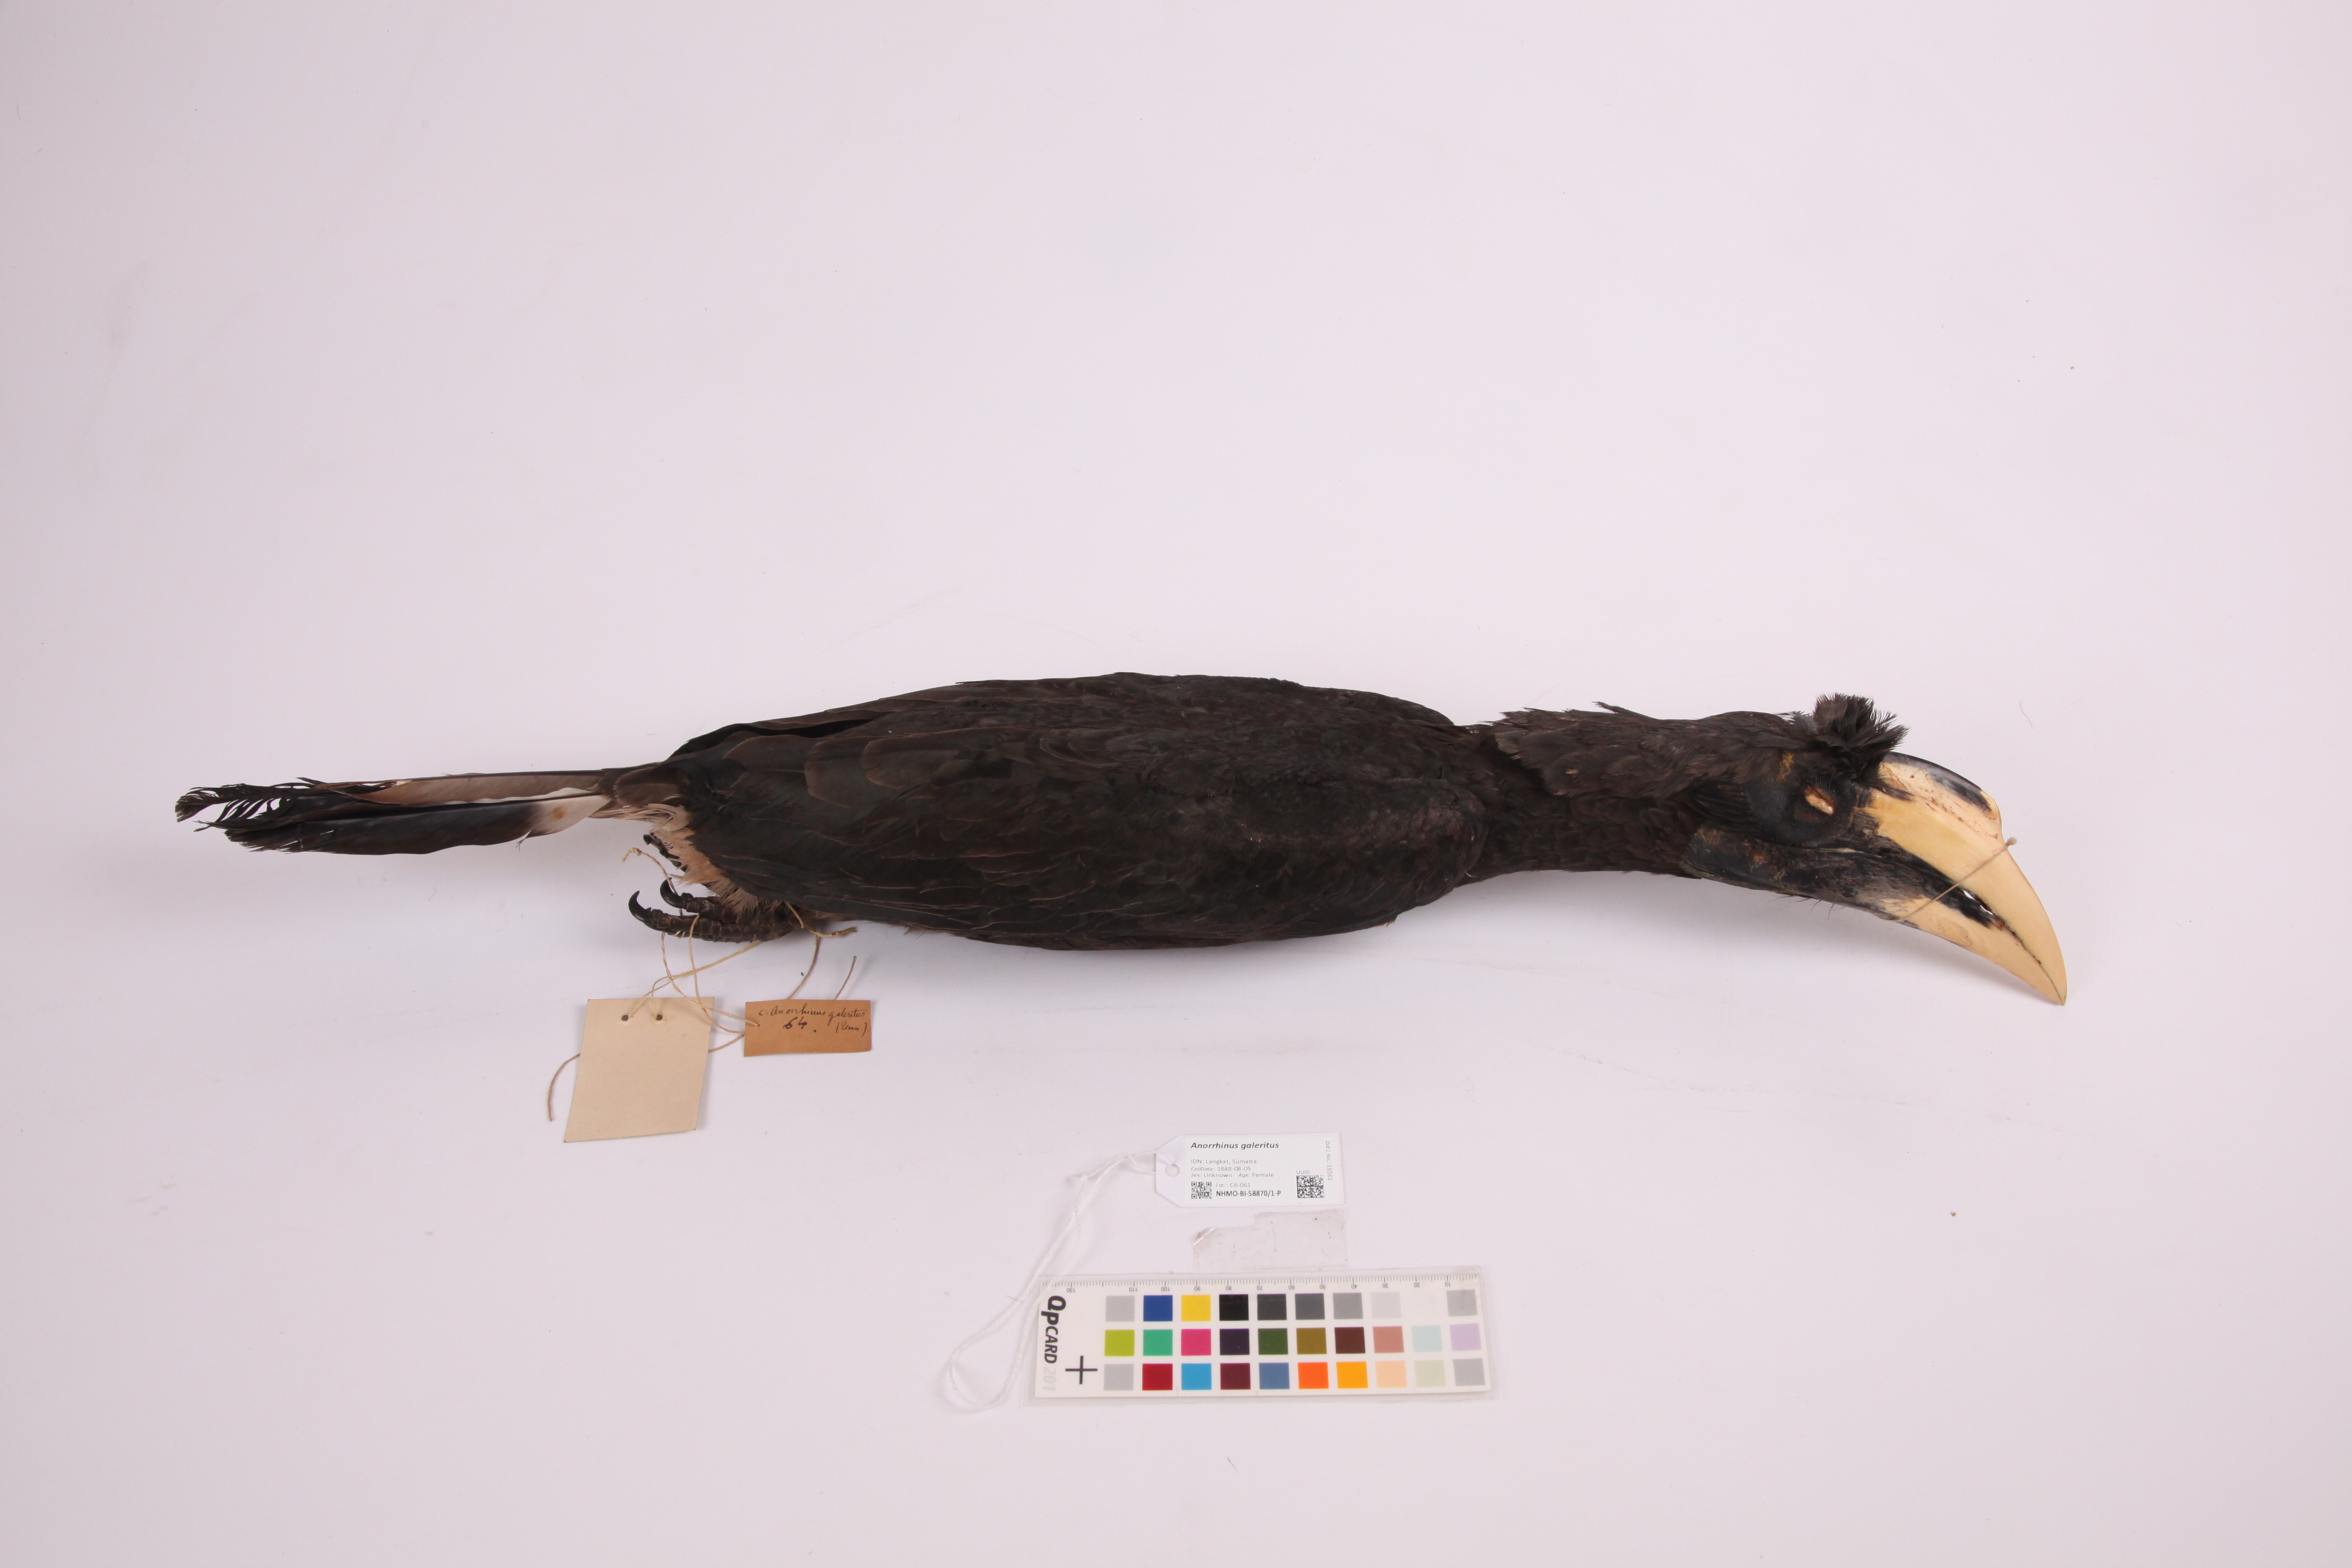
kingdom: Animalia
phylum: Chordata
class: Aves
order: Bucerotiformes
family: Bucerotidae
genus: Anorrhinus
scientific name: Anorrhinus galeritus
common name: Bushy-crested hornbill
